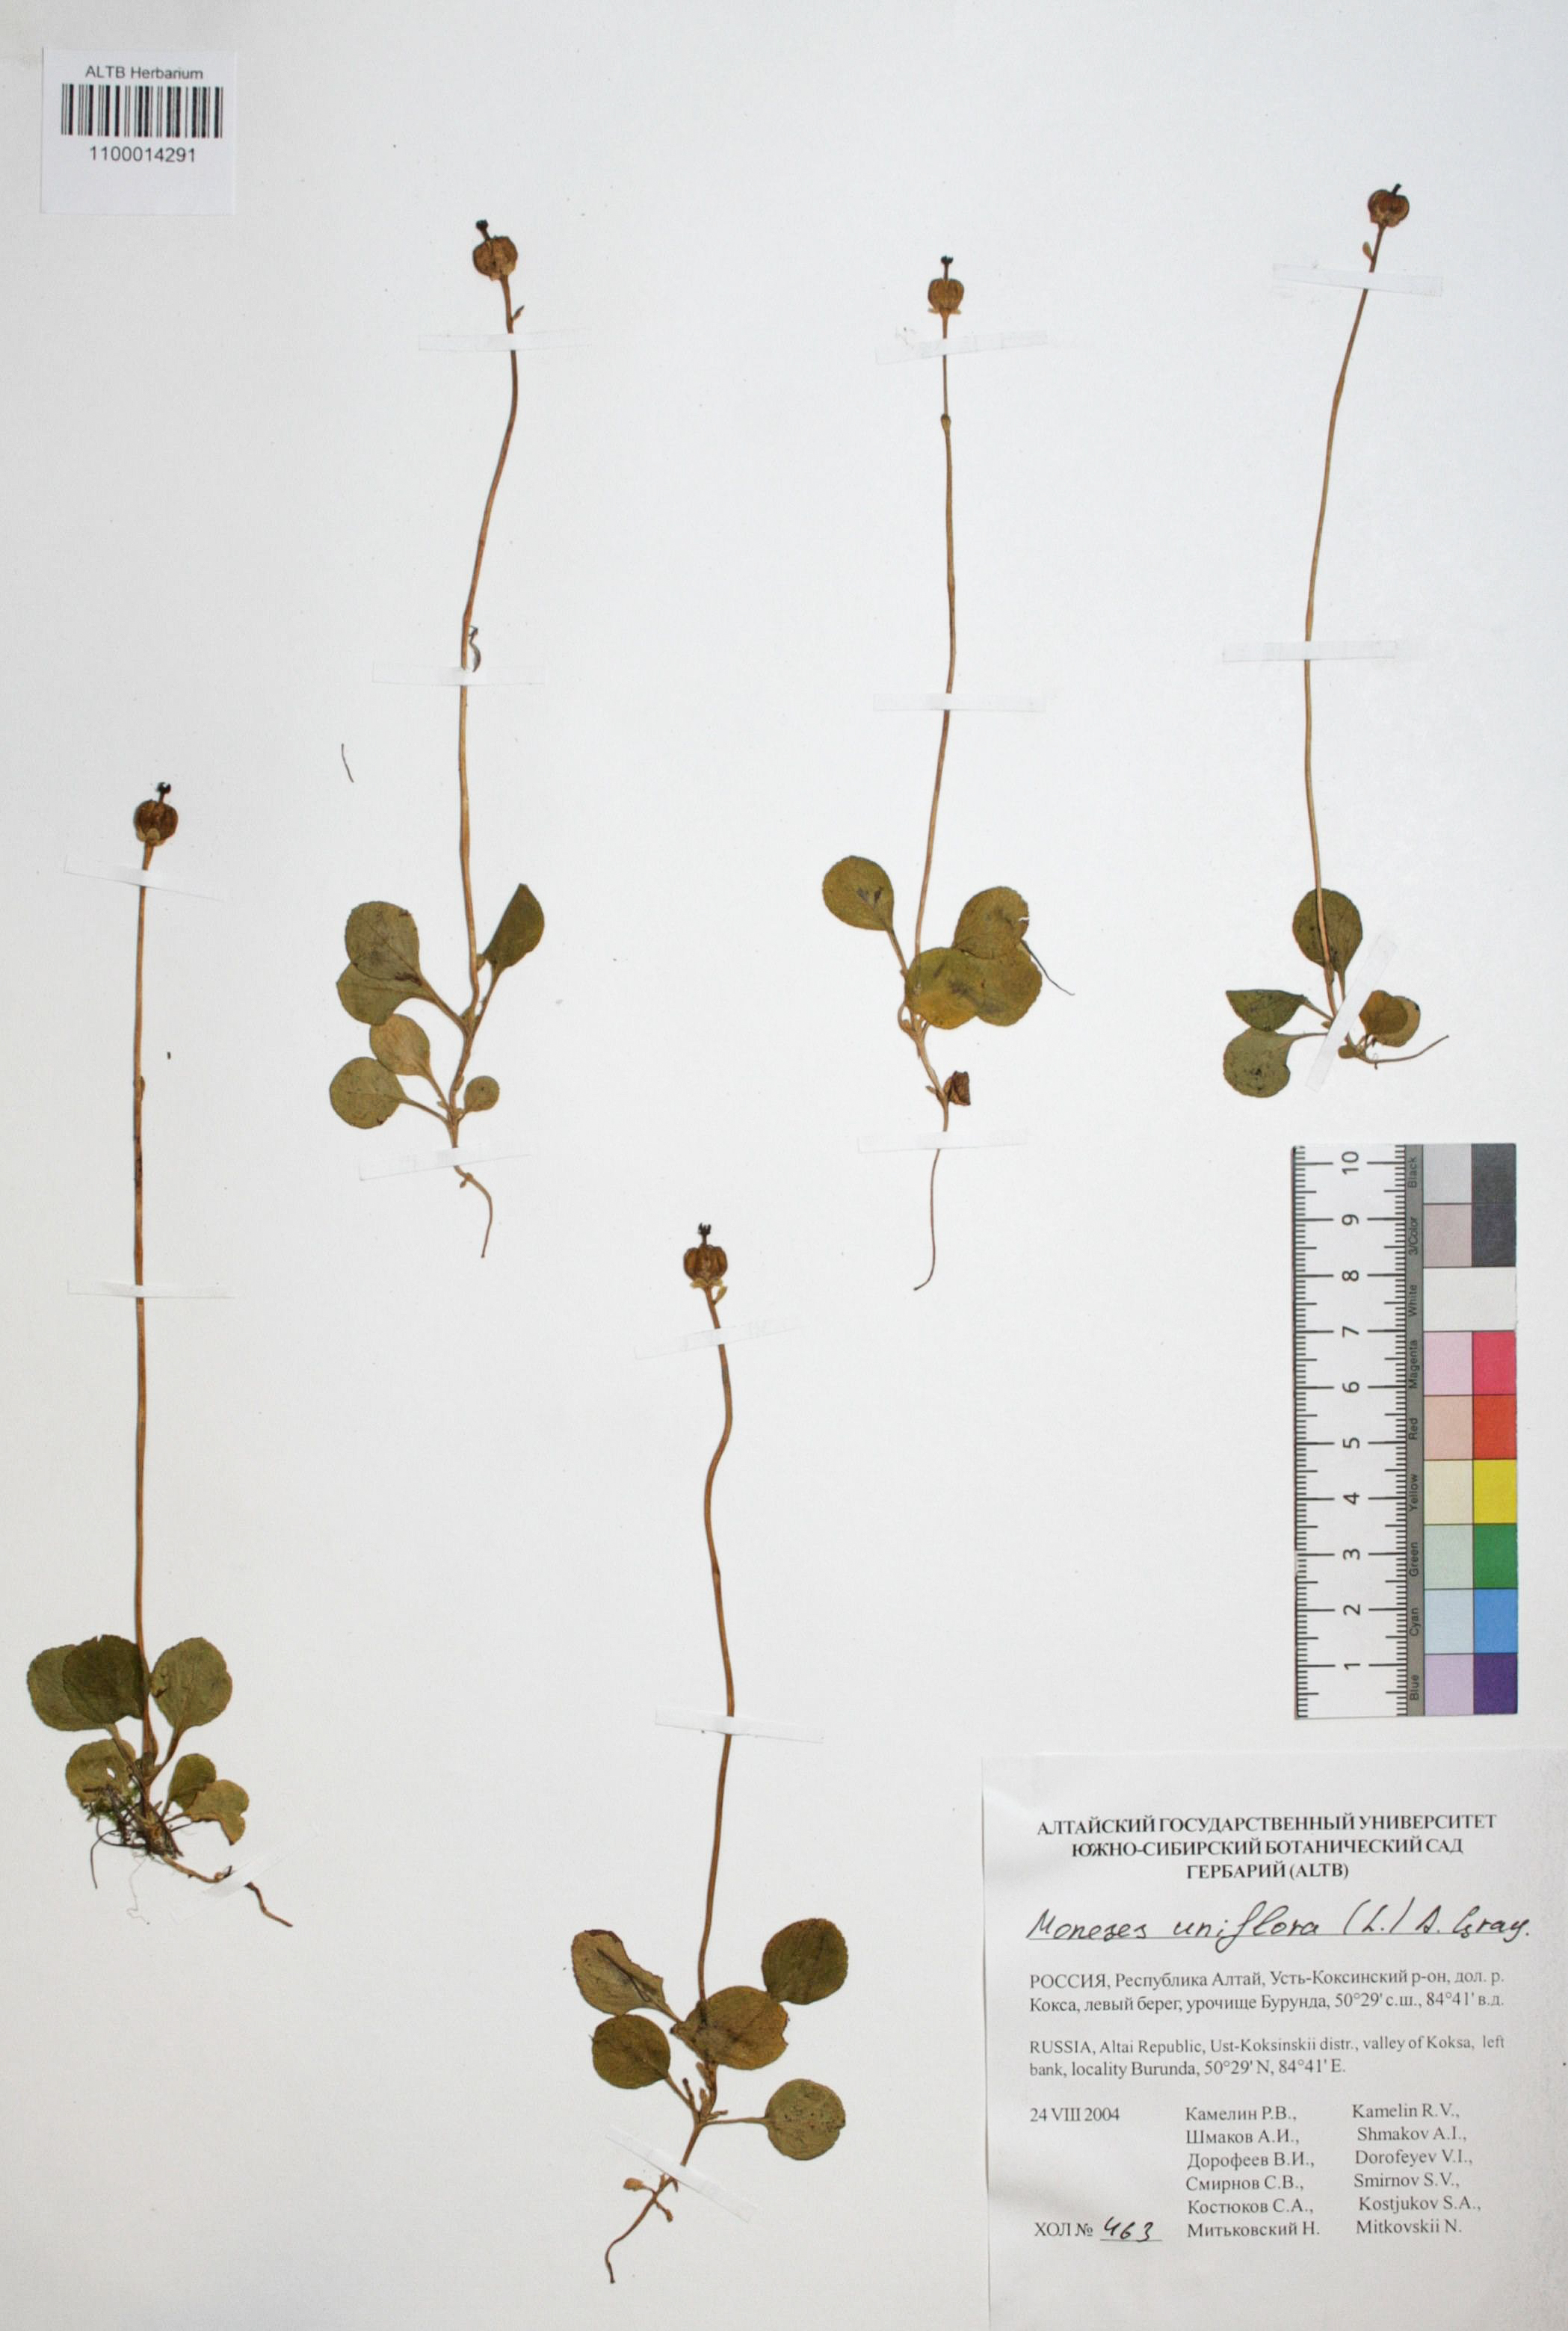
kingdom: Plantae
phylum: Tracheophyta
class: Magnoliopsida
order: Ericales
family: Ericaceae
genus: Moneses
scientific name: Moneses uniflora
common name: One-flowered wintergreen
